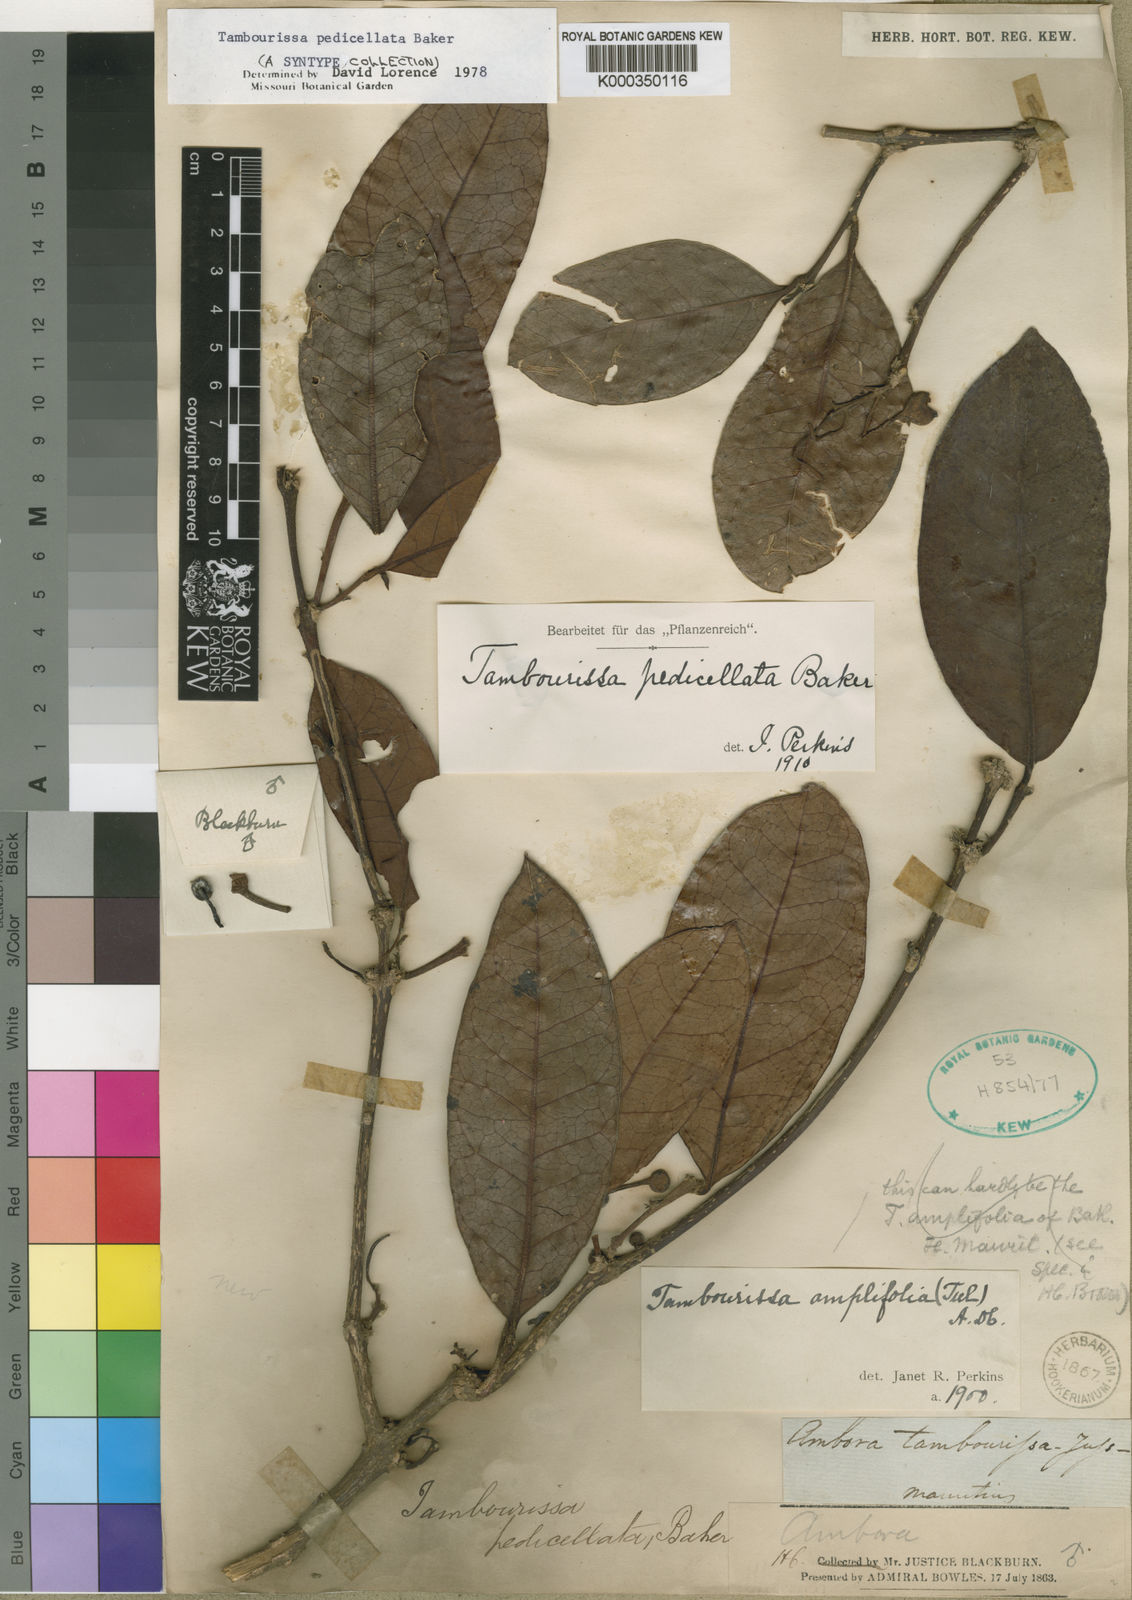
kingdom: Plantae
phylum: Tracheophyta
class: Magnoliopsida
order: Laurales
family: Monimiaceae
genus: Tambourissa
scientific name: Tambourissa pedicellata
